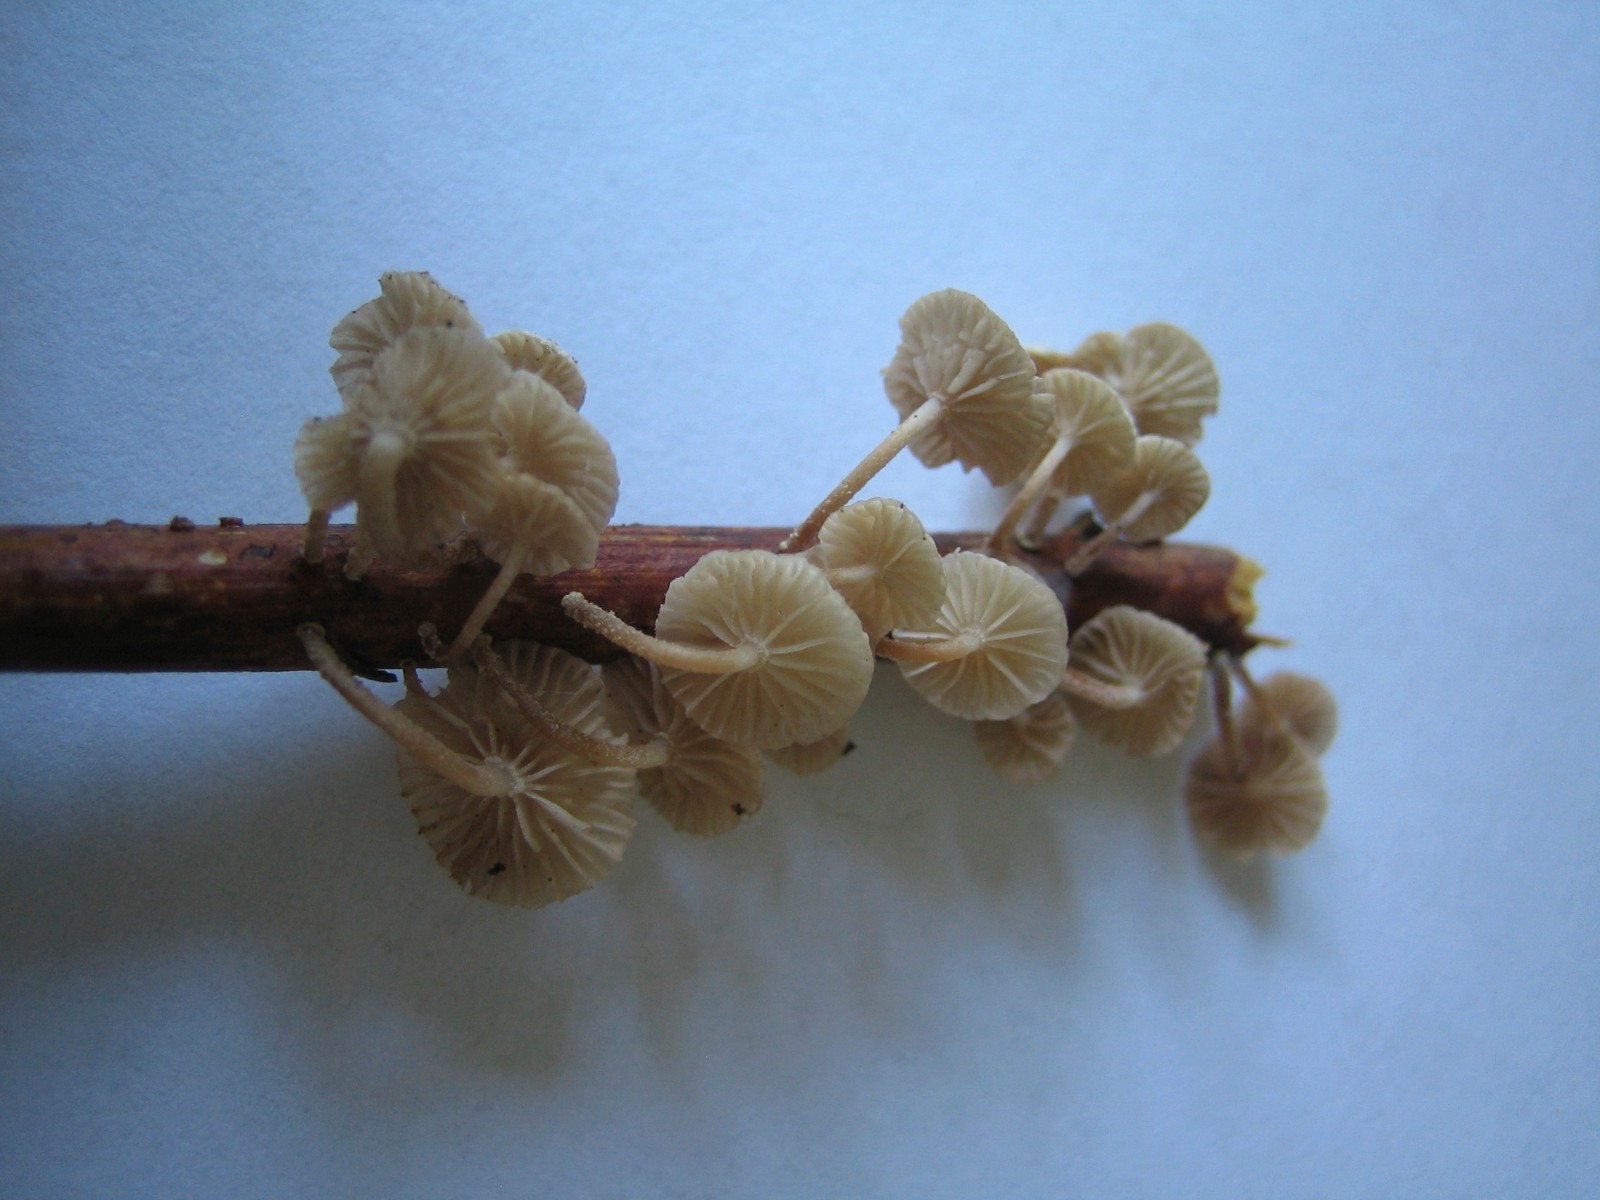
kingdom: Fungi
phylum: Basidiomycota
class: Agaricomycetes
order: Agaricales
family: Omphalotaceae
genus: Collybiopsis
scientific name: Collybiopsis ramealis
